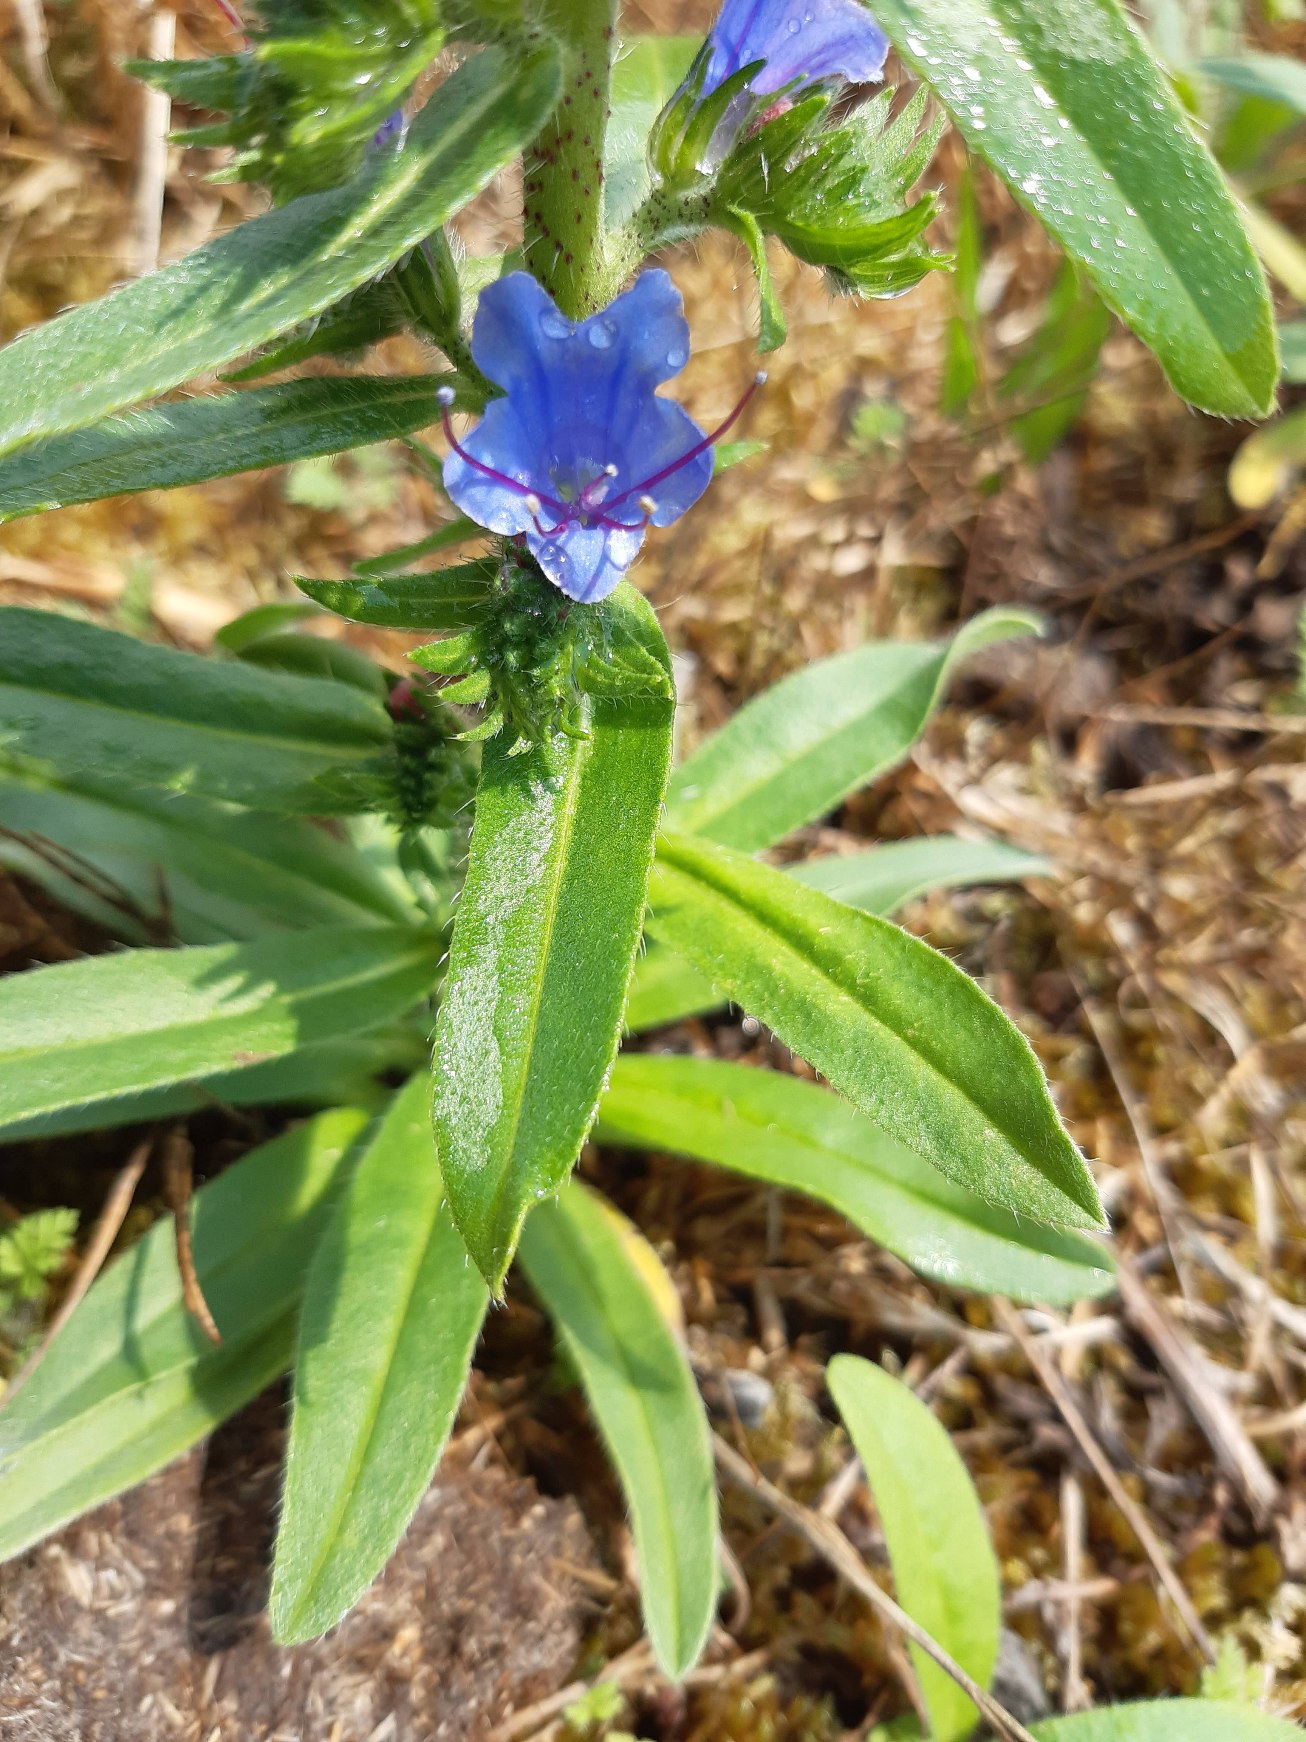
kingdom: Plantae
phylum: Tracheophyta
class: Magnoliopsida
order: Boraginales
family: Boraginaceae
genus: Echium
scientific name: Echium vulgare
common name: Slangehoved
